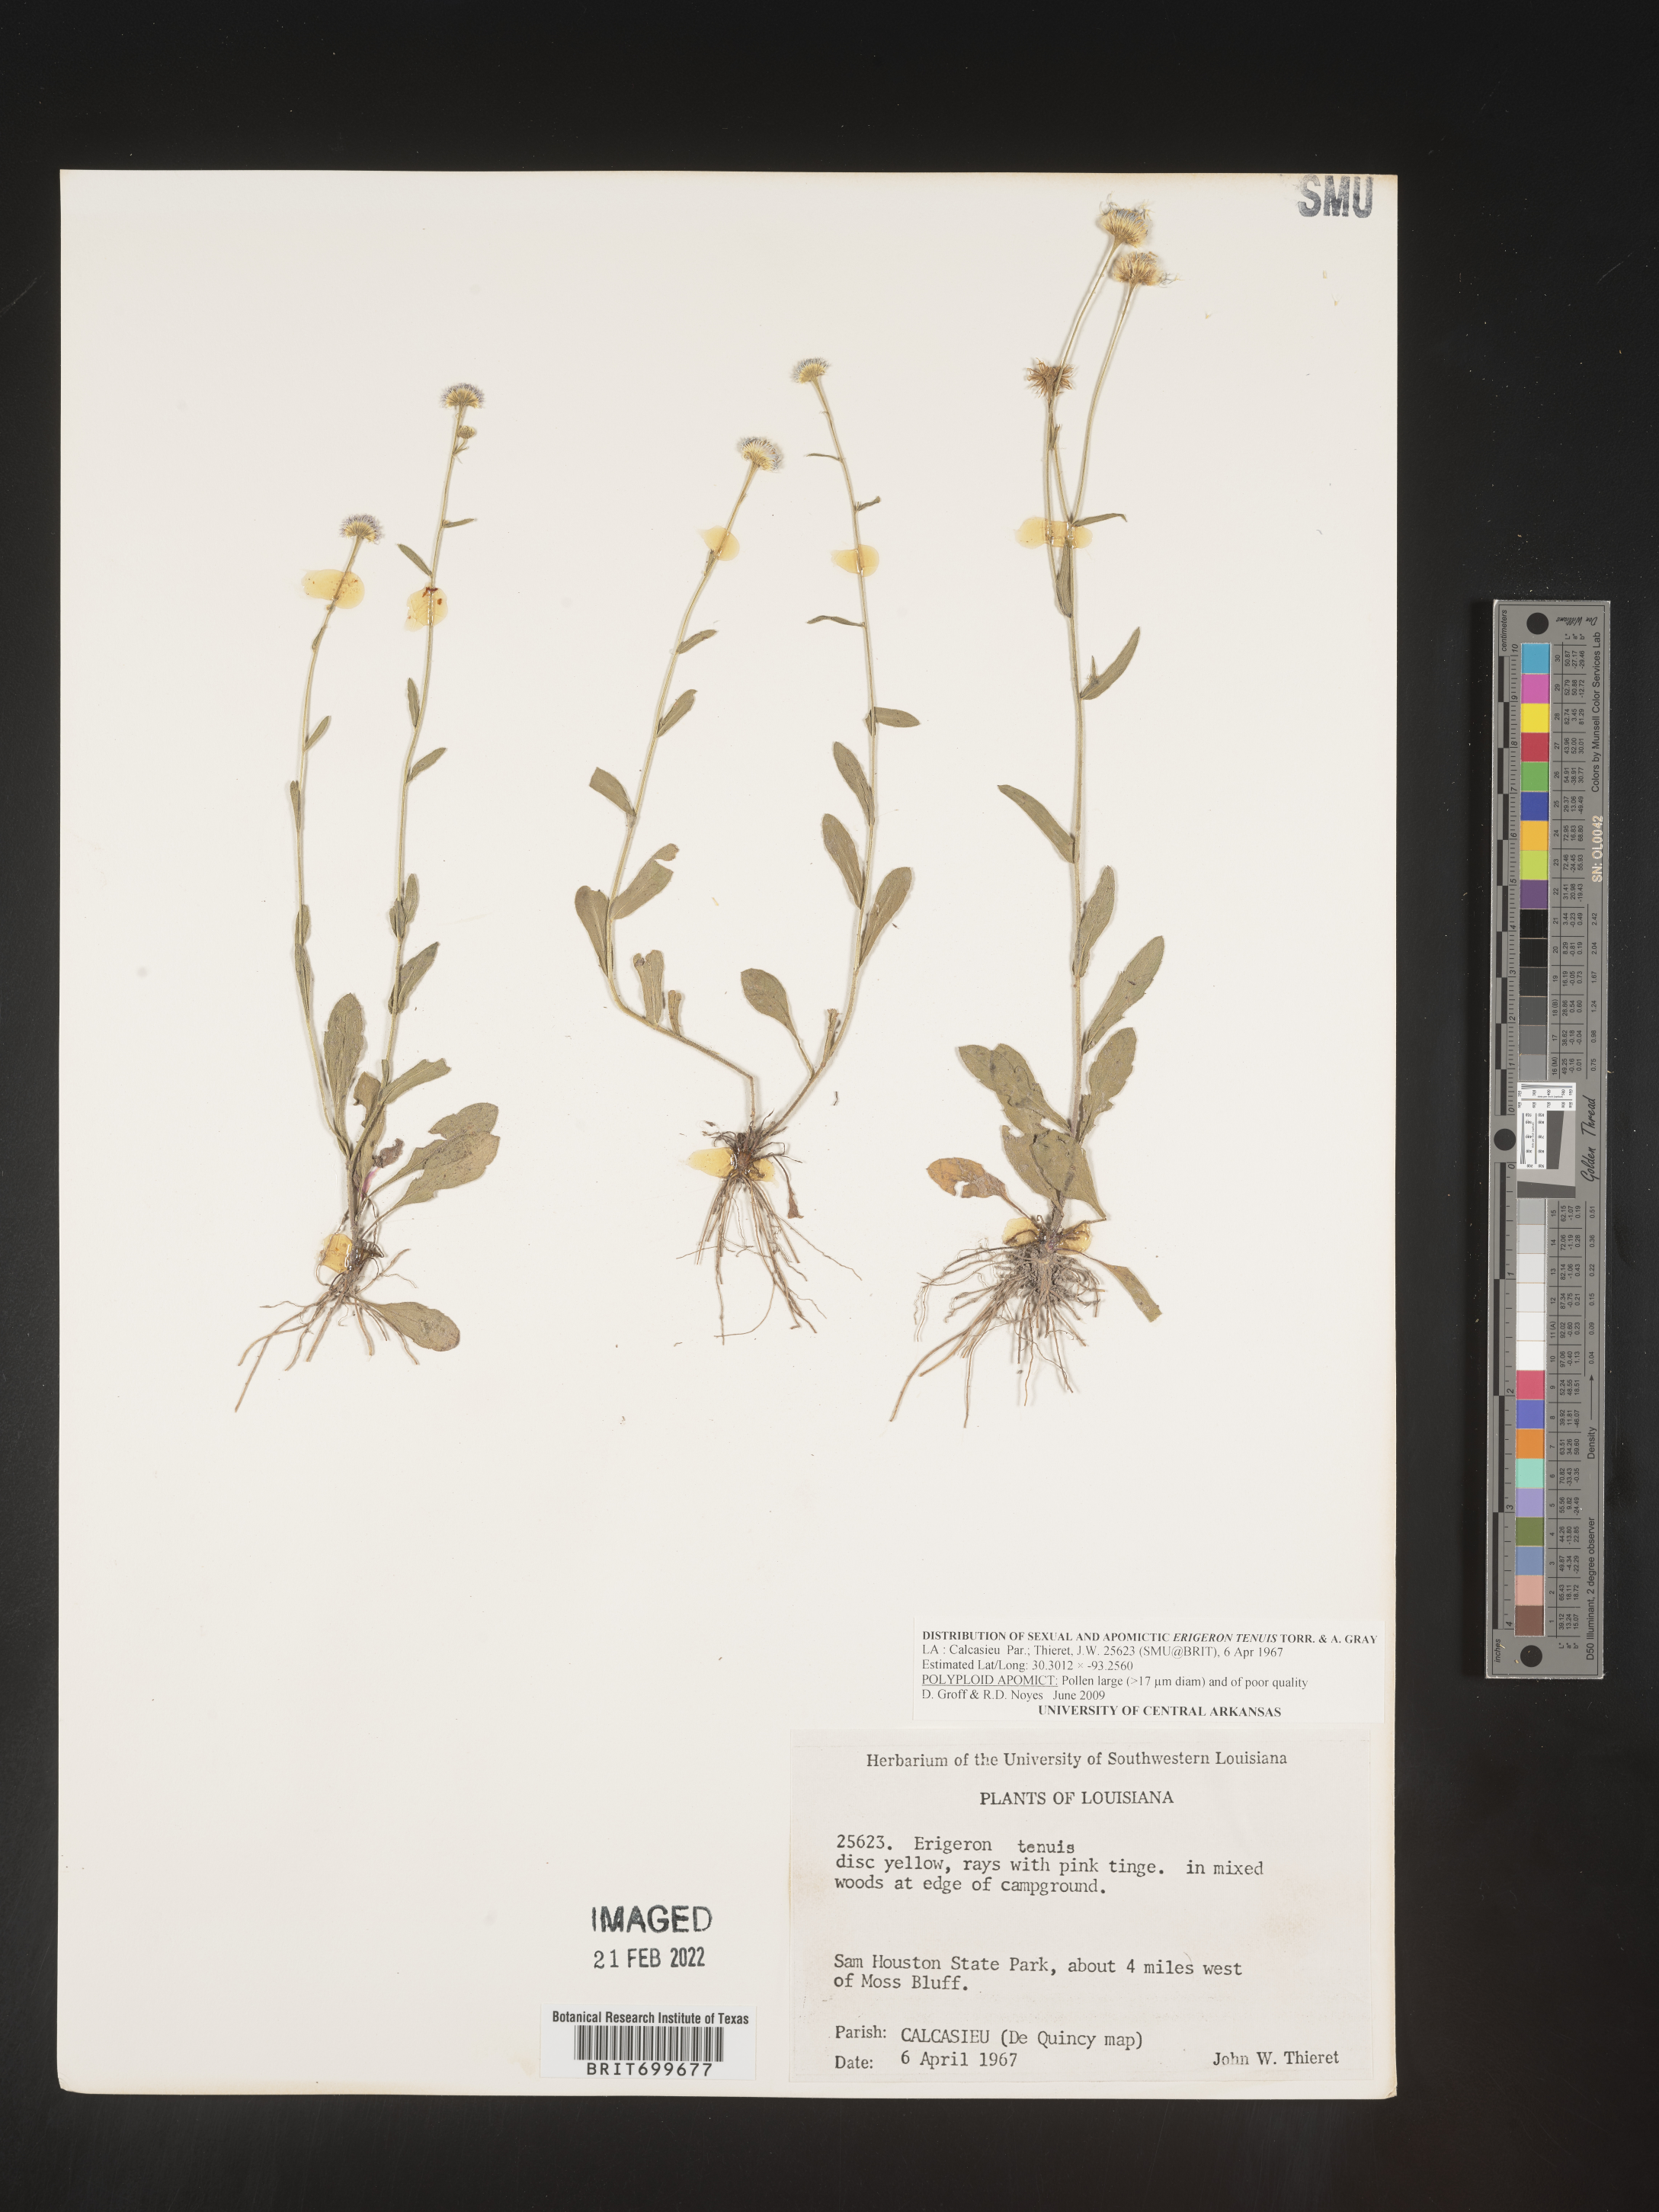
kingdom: Plantae
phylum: Tracheophyta
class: Magnoliopsida
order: Asterales
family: Asteraceae
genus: Erigeron
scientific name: Erigeron tenuis
